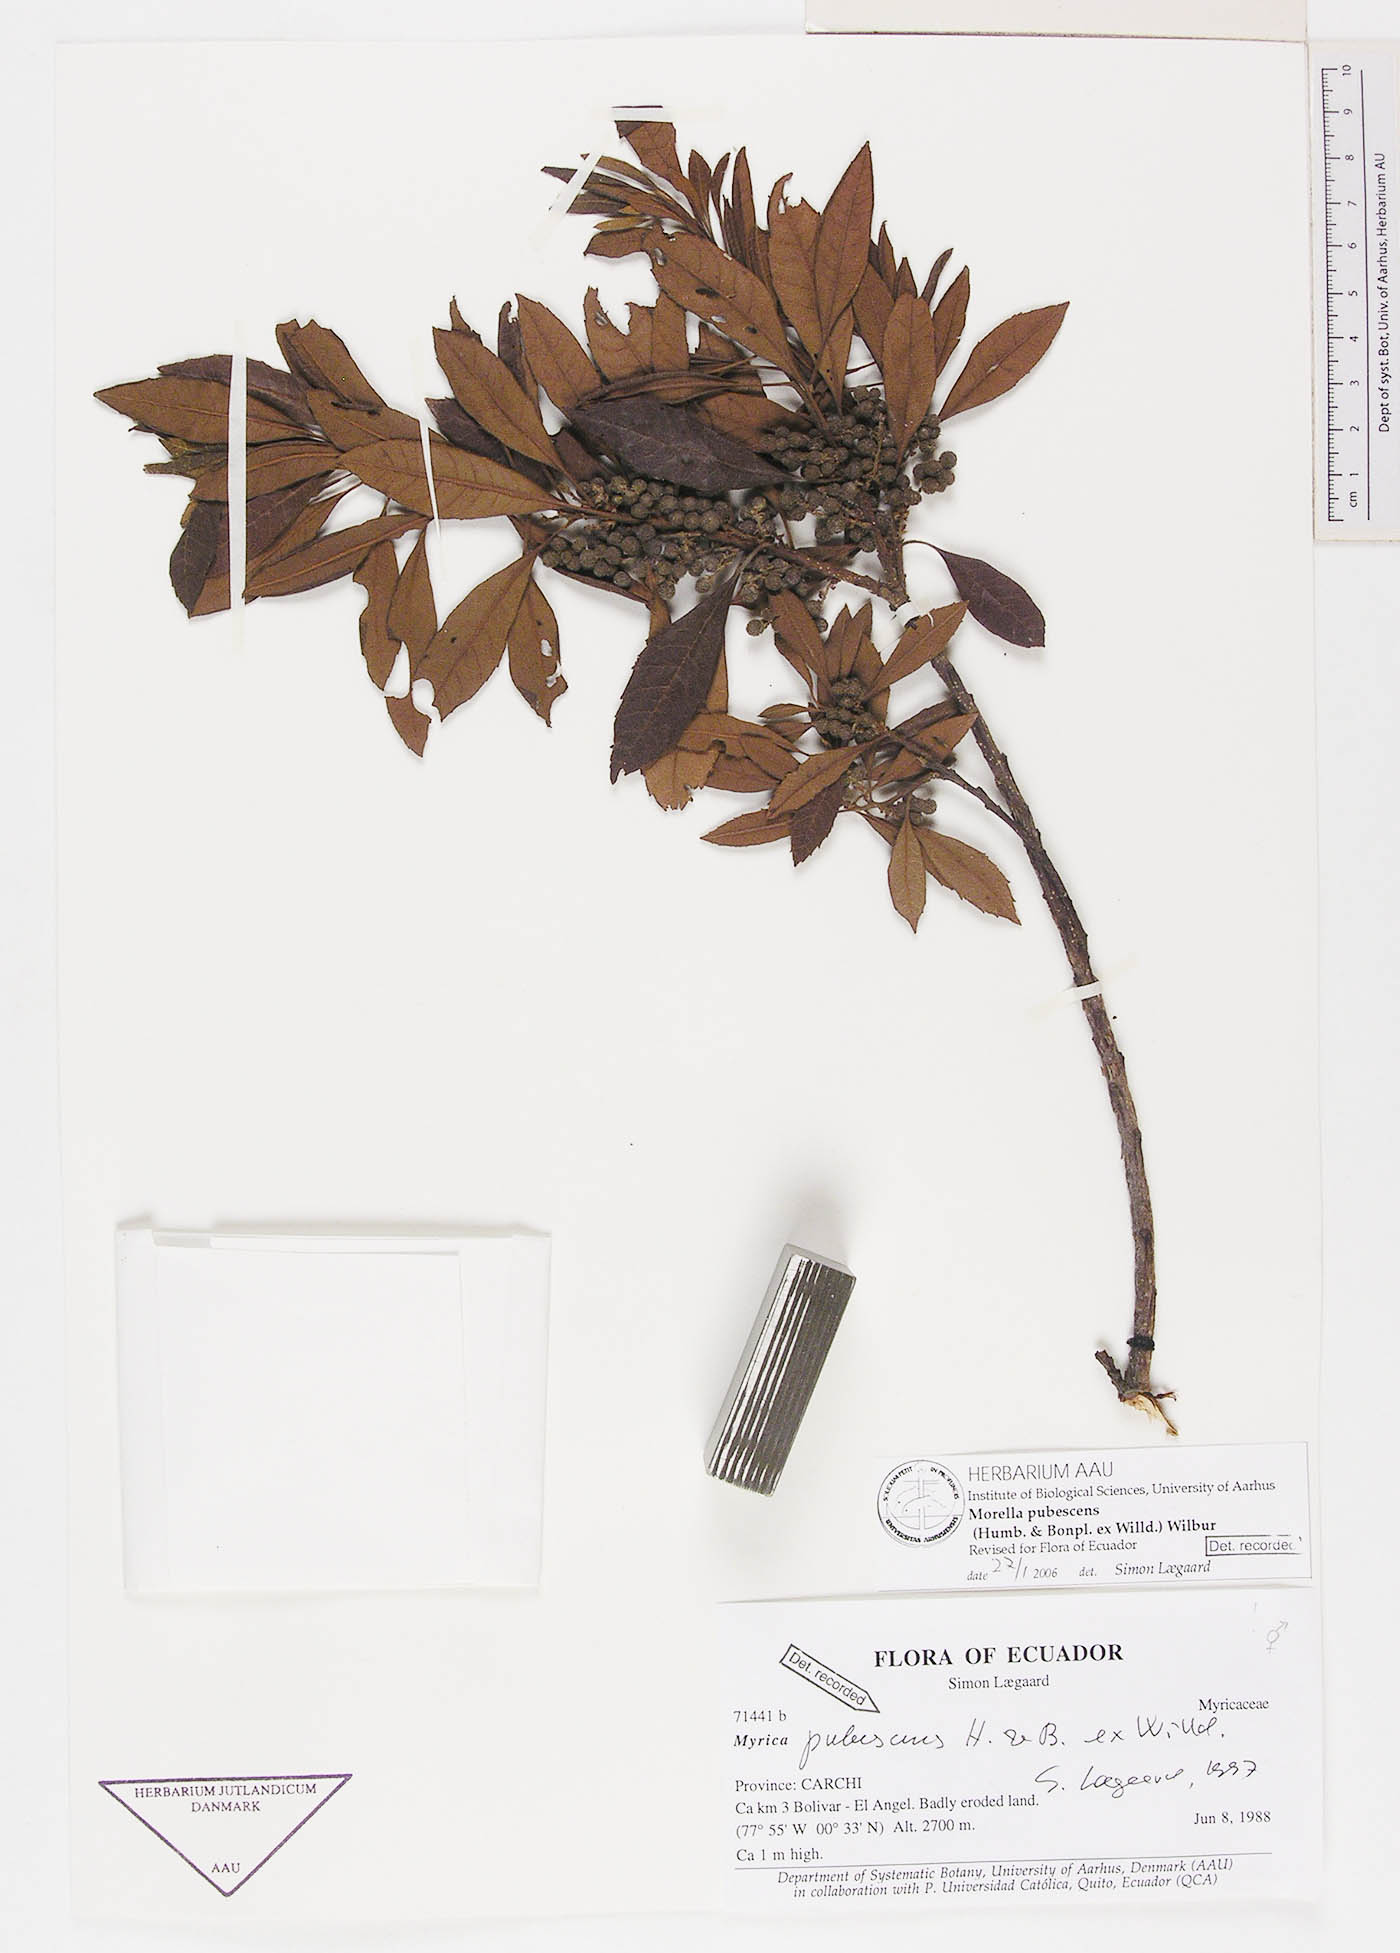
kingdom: Plantae
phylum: Tracheophyta
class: Magnoliopsida
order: Fagales
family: Myricaceae
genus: Morella
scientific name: Morella pubescens
